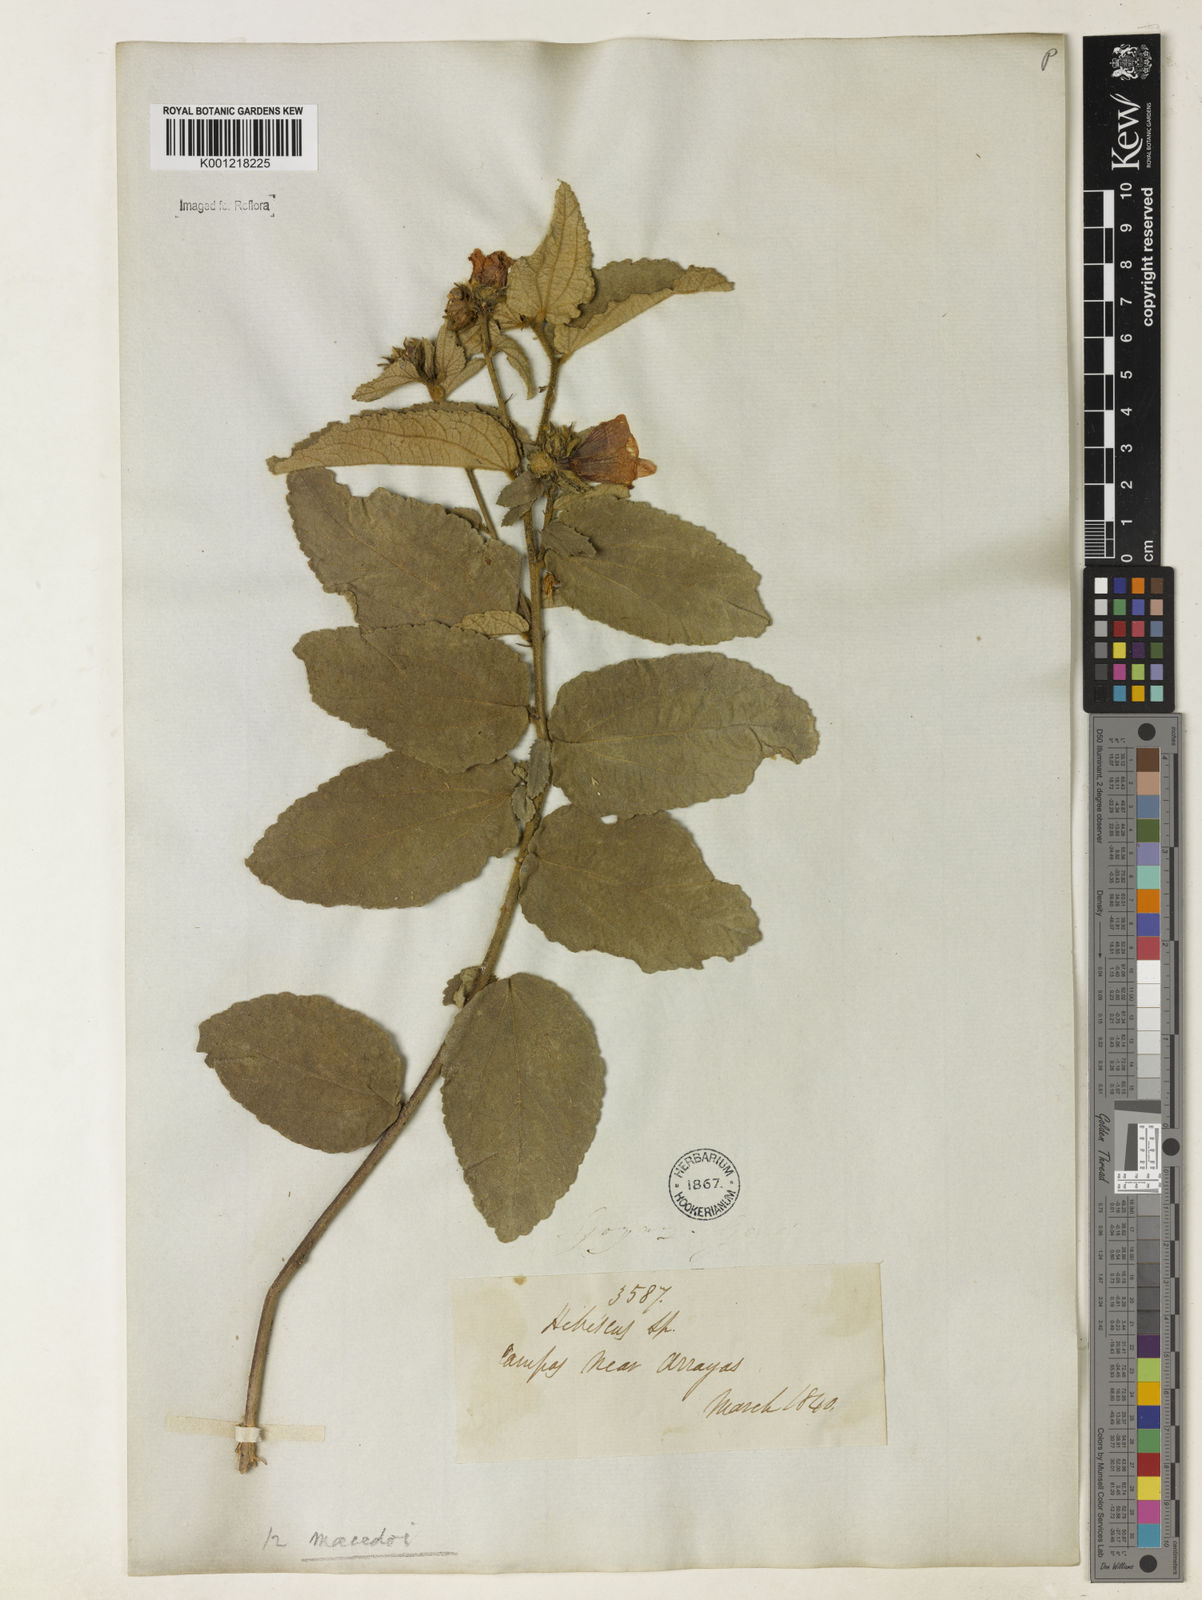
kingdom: Plantae
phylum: Tracheophyta
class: Magnoliopsida
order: Malvales
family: Malvaceae
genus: Peltaea
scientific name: Peltaea
